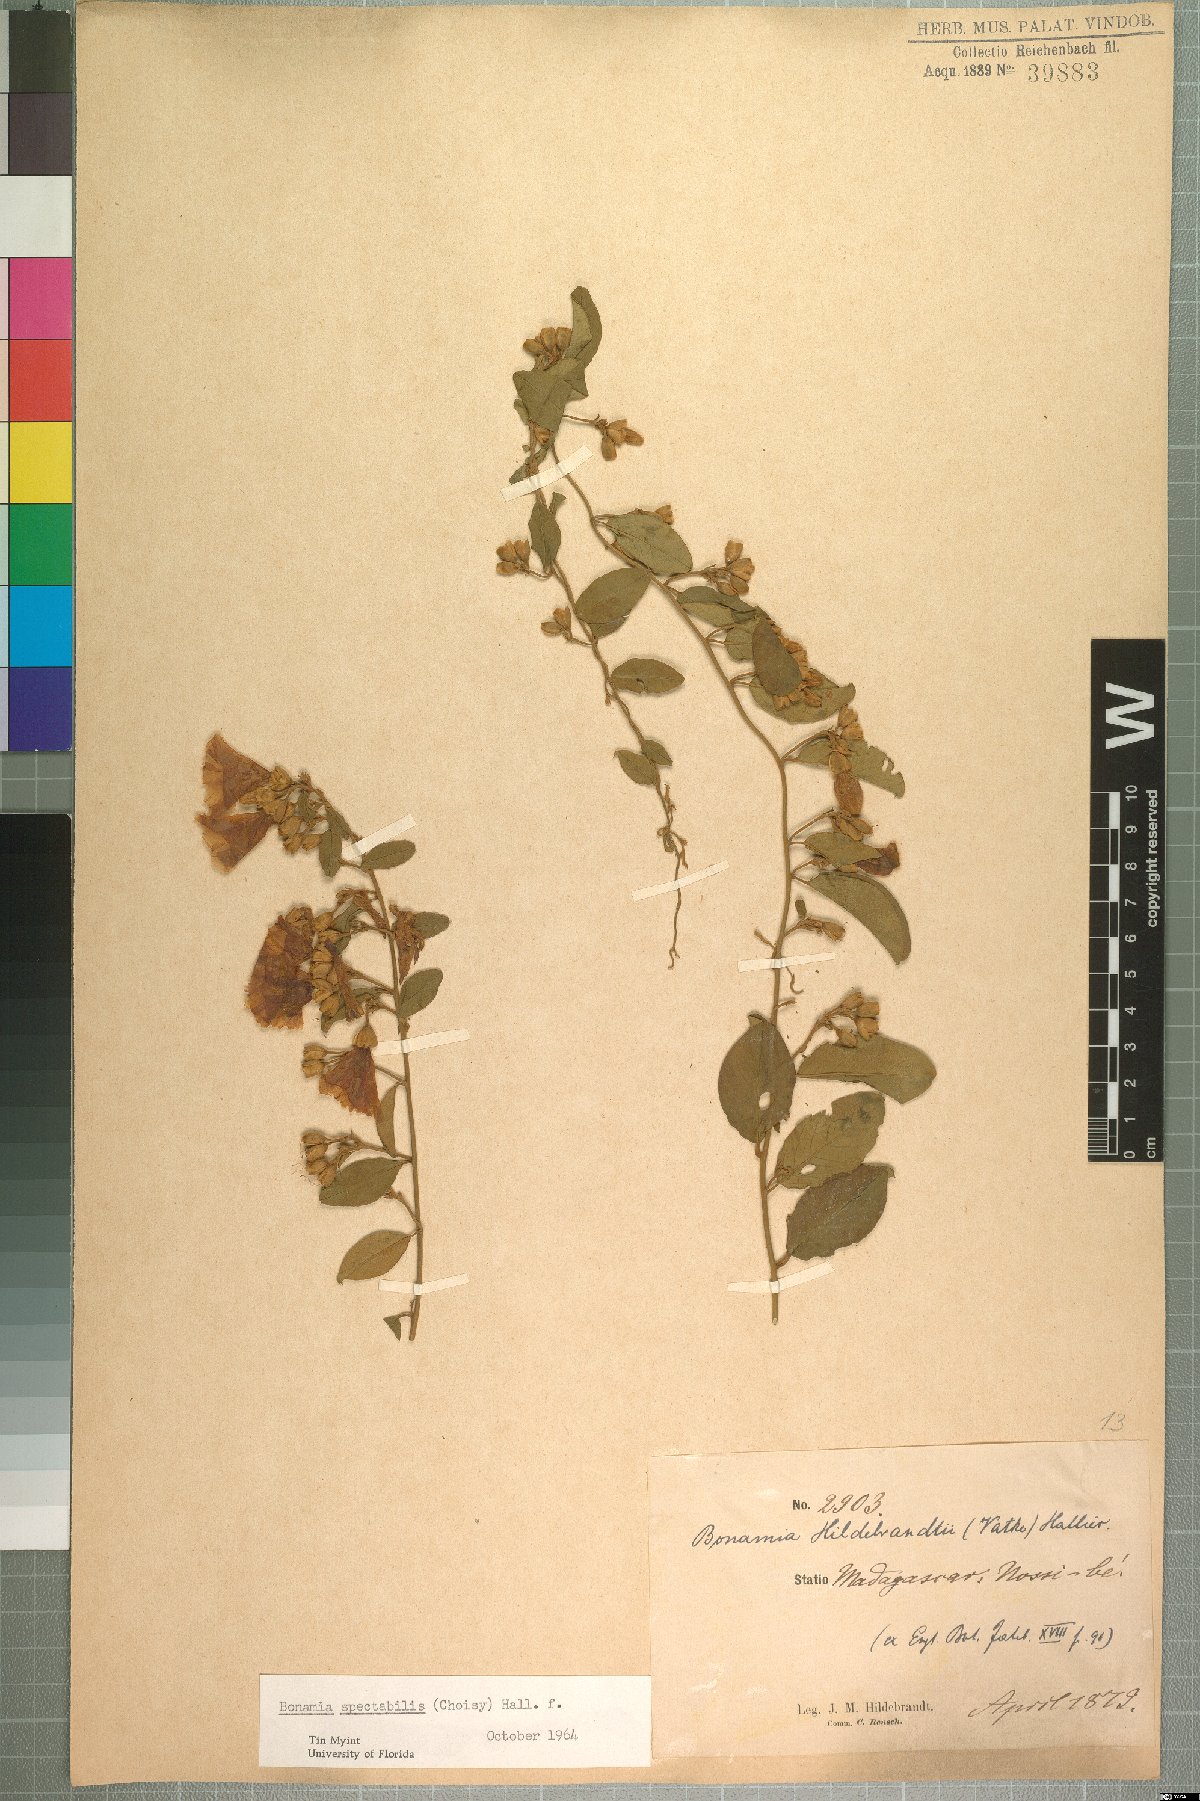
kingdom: Plantae
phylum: Tracheophyta
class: Magnoliopsida
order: Solanales
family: Convolvulaceae
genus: Bonamia
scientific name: Bonamia spectabilis
